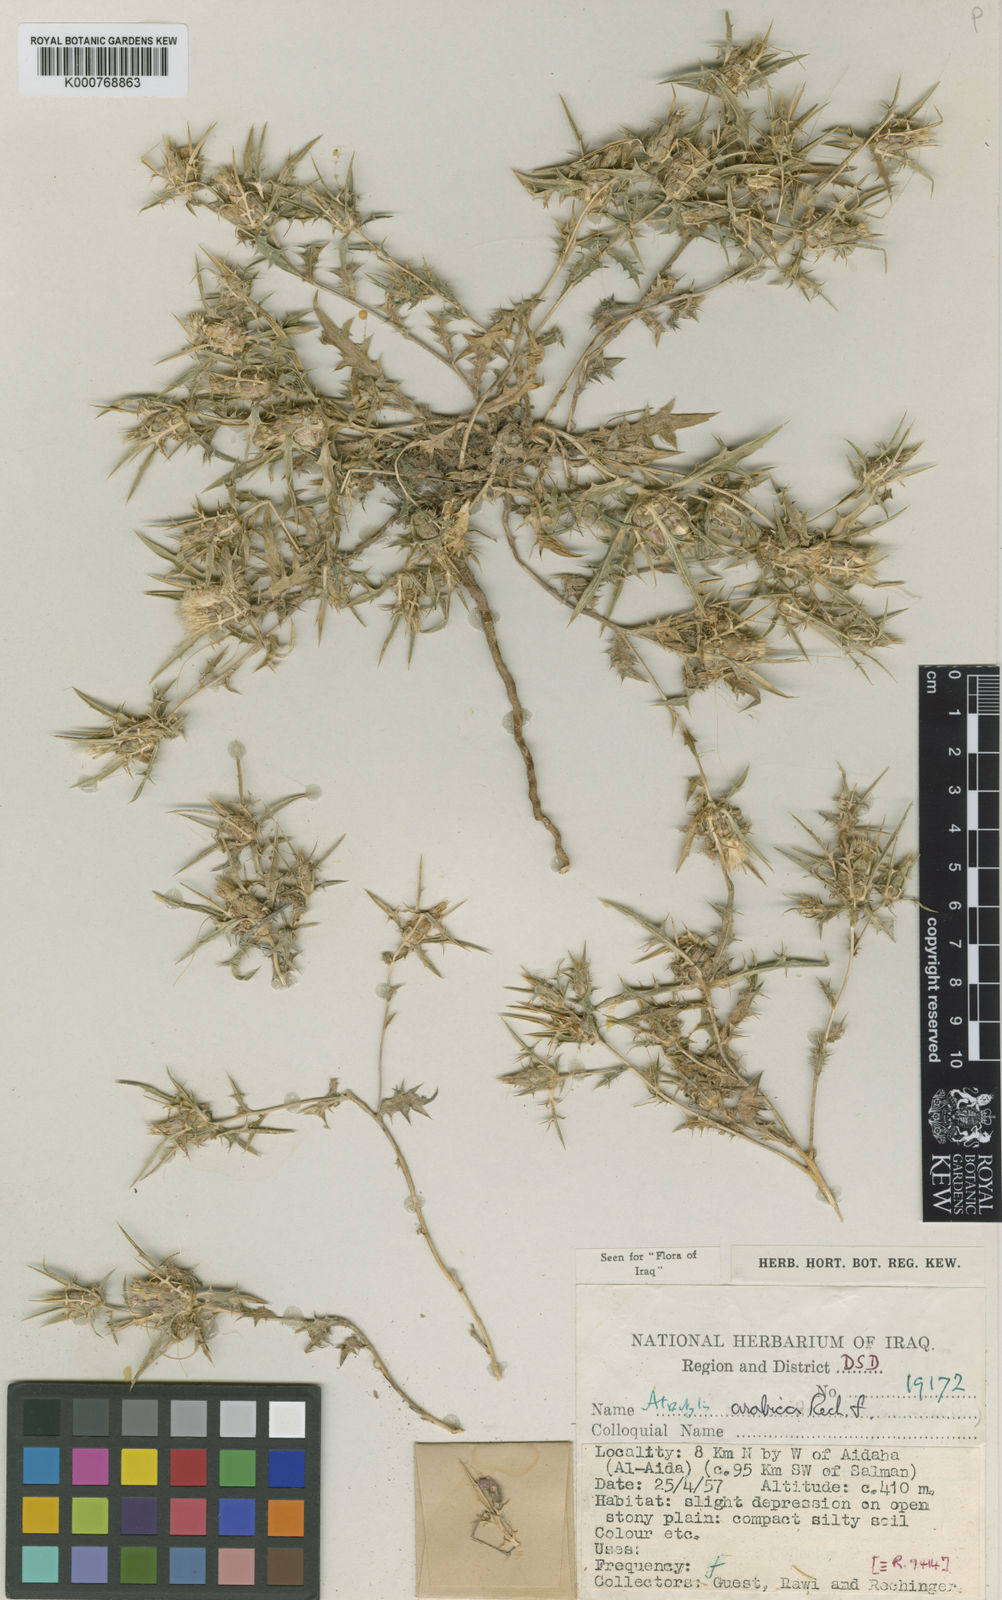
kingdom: Plantae
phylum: Tracheophyta
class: Magnoliopsida
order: Asterales
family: Asteraceae
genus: Atractylis
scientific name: Atractylis arabica
